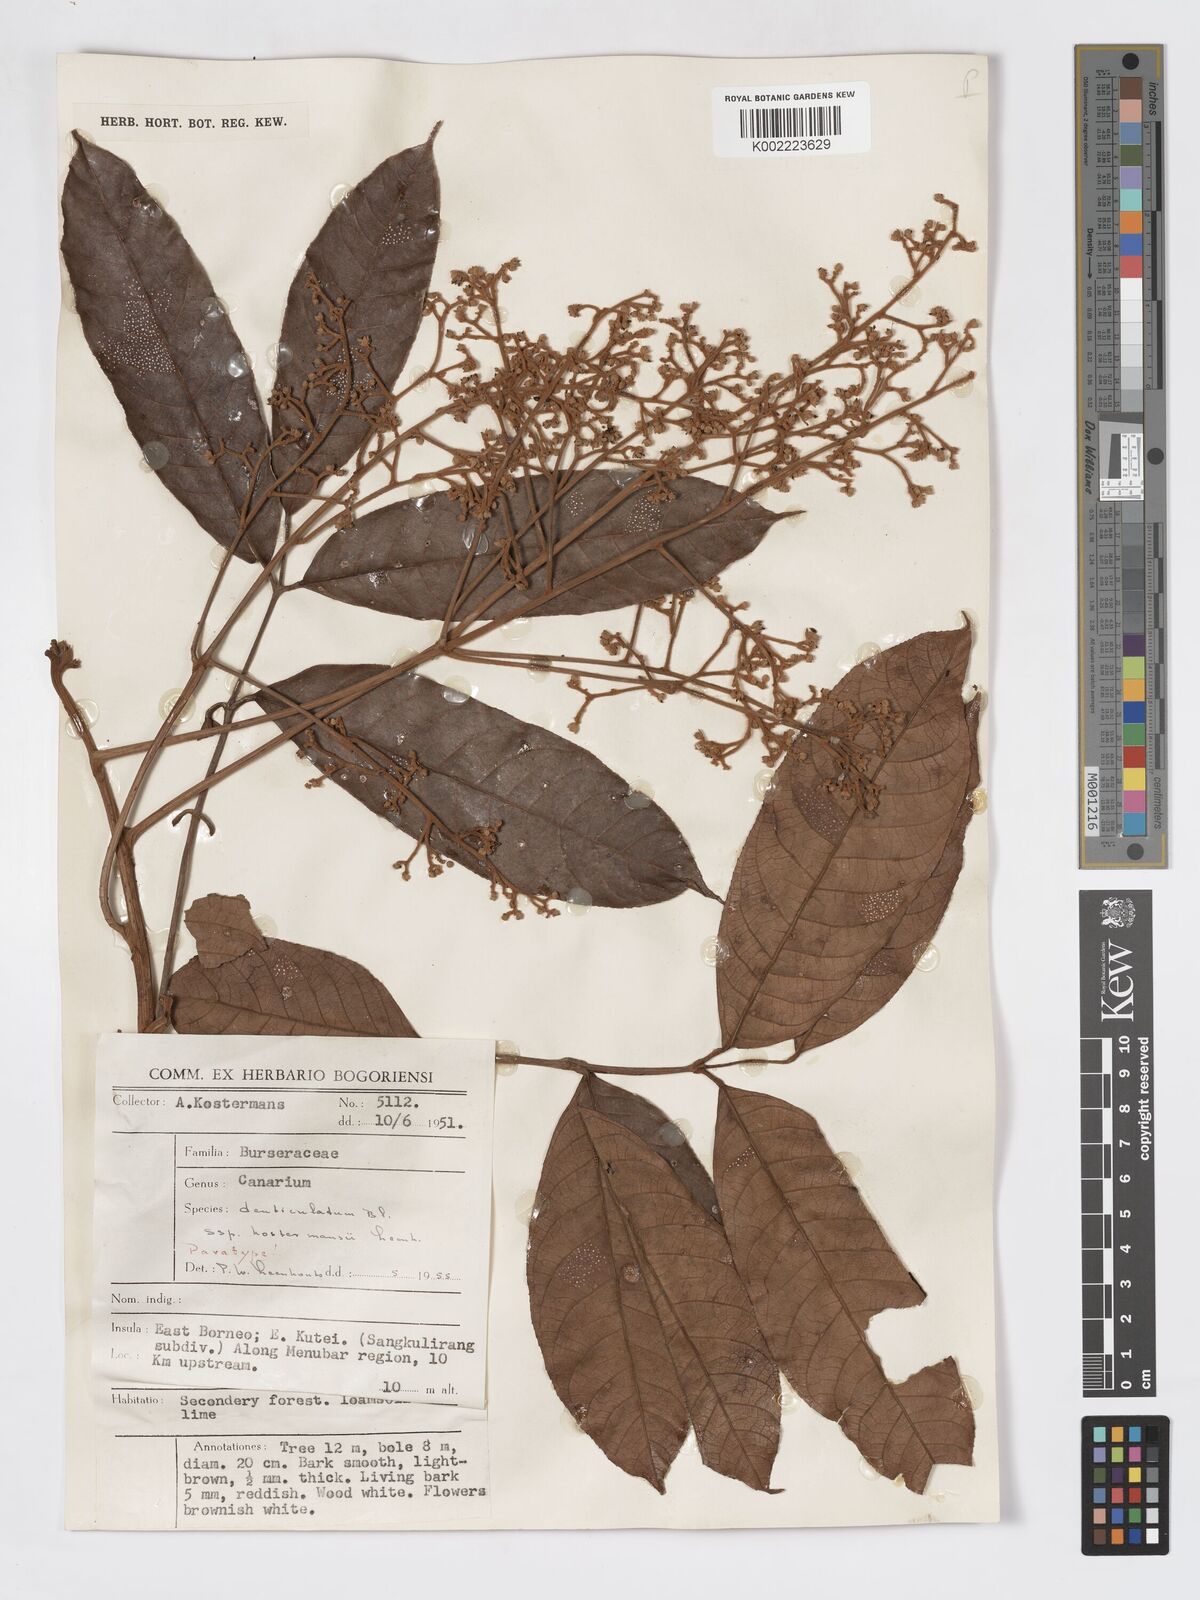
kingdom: Plantae
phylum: Tracheophyta
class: Magnoliopsida
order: Sapindales
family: Burseraceae
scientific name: Burseraceae
